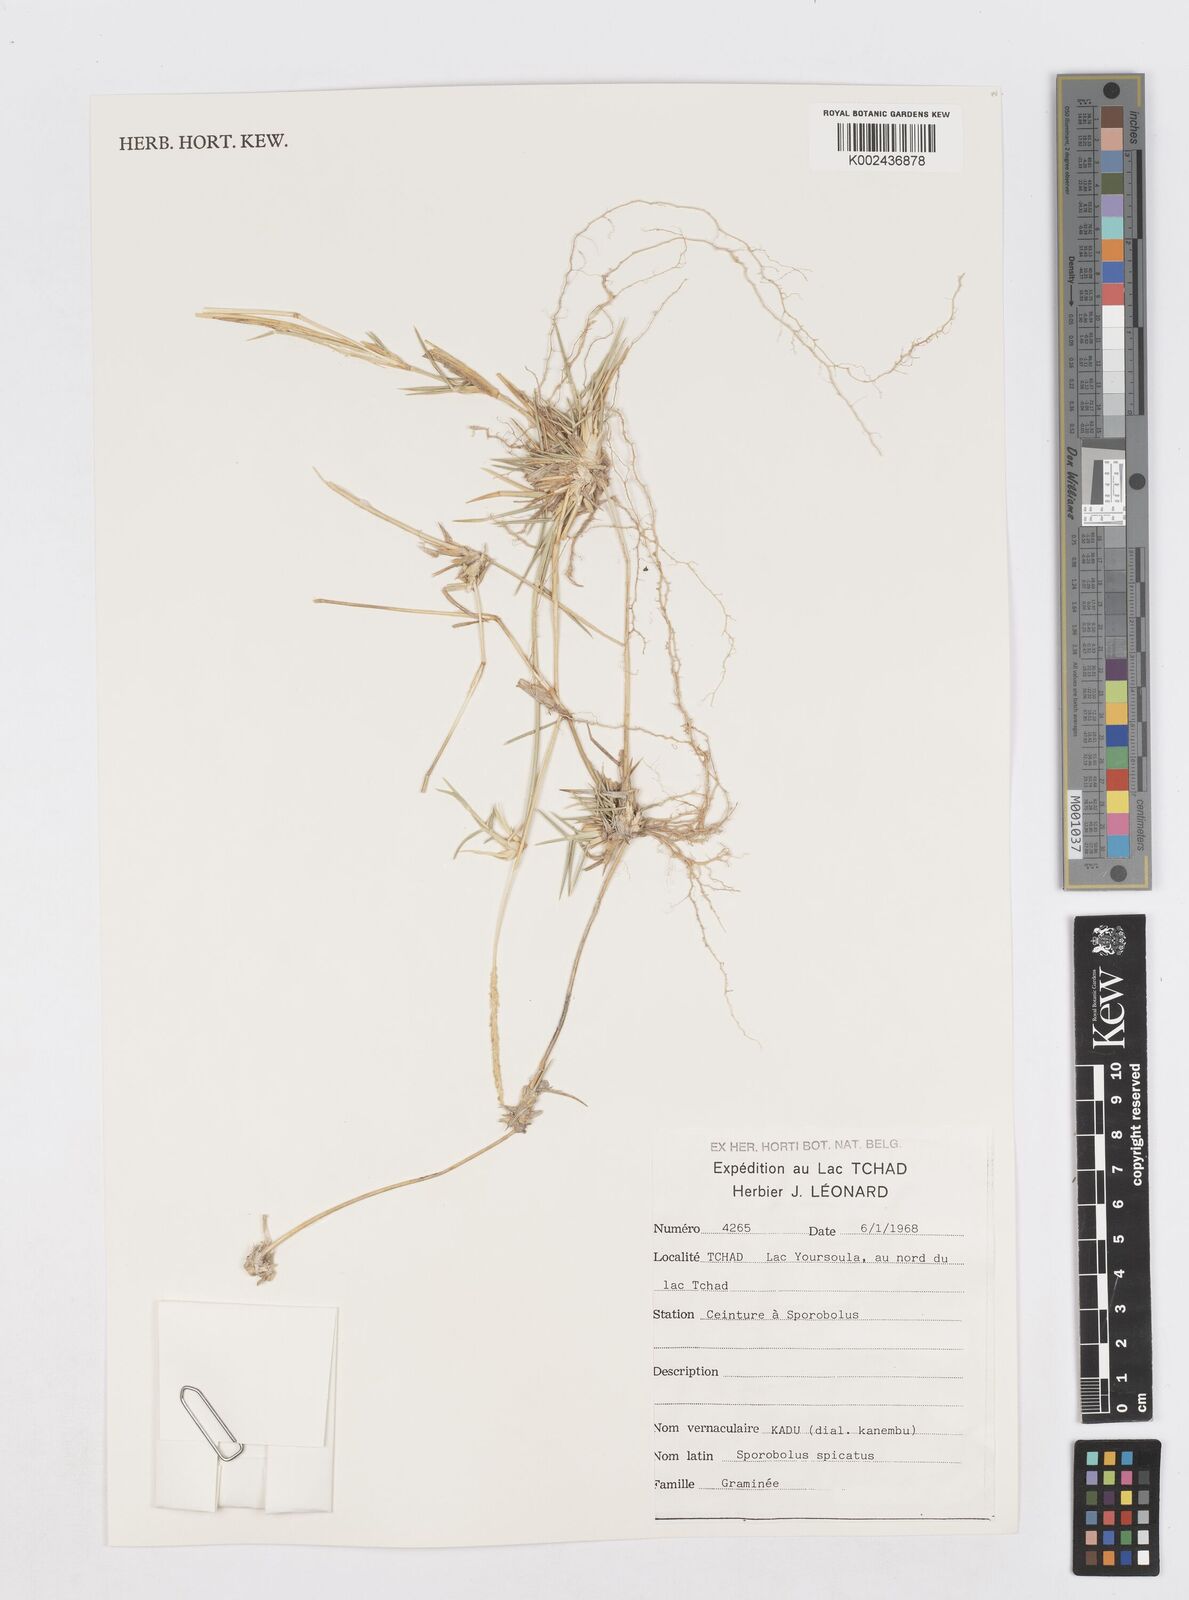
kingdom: Plantae
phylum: Tracheophyta
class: Liliopsida
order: Poales
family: Poaceae
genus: Sporobolus
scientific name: Sporobolus spicatus
